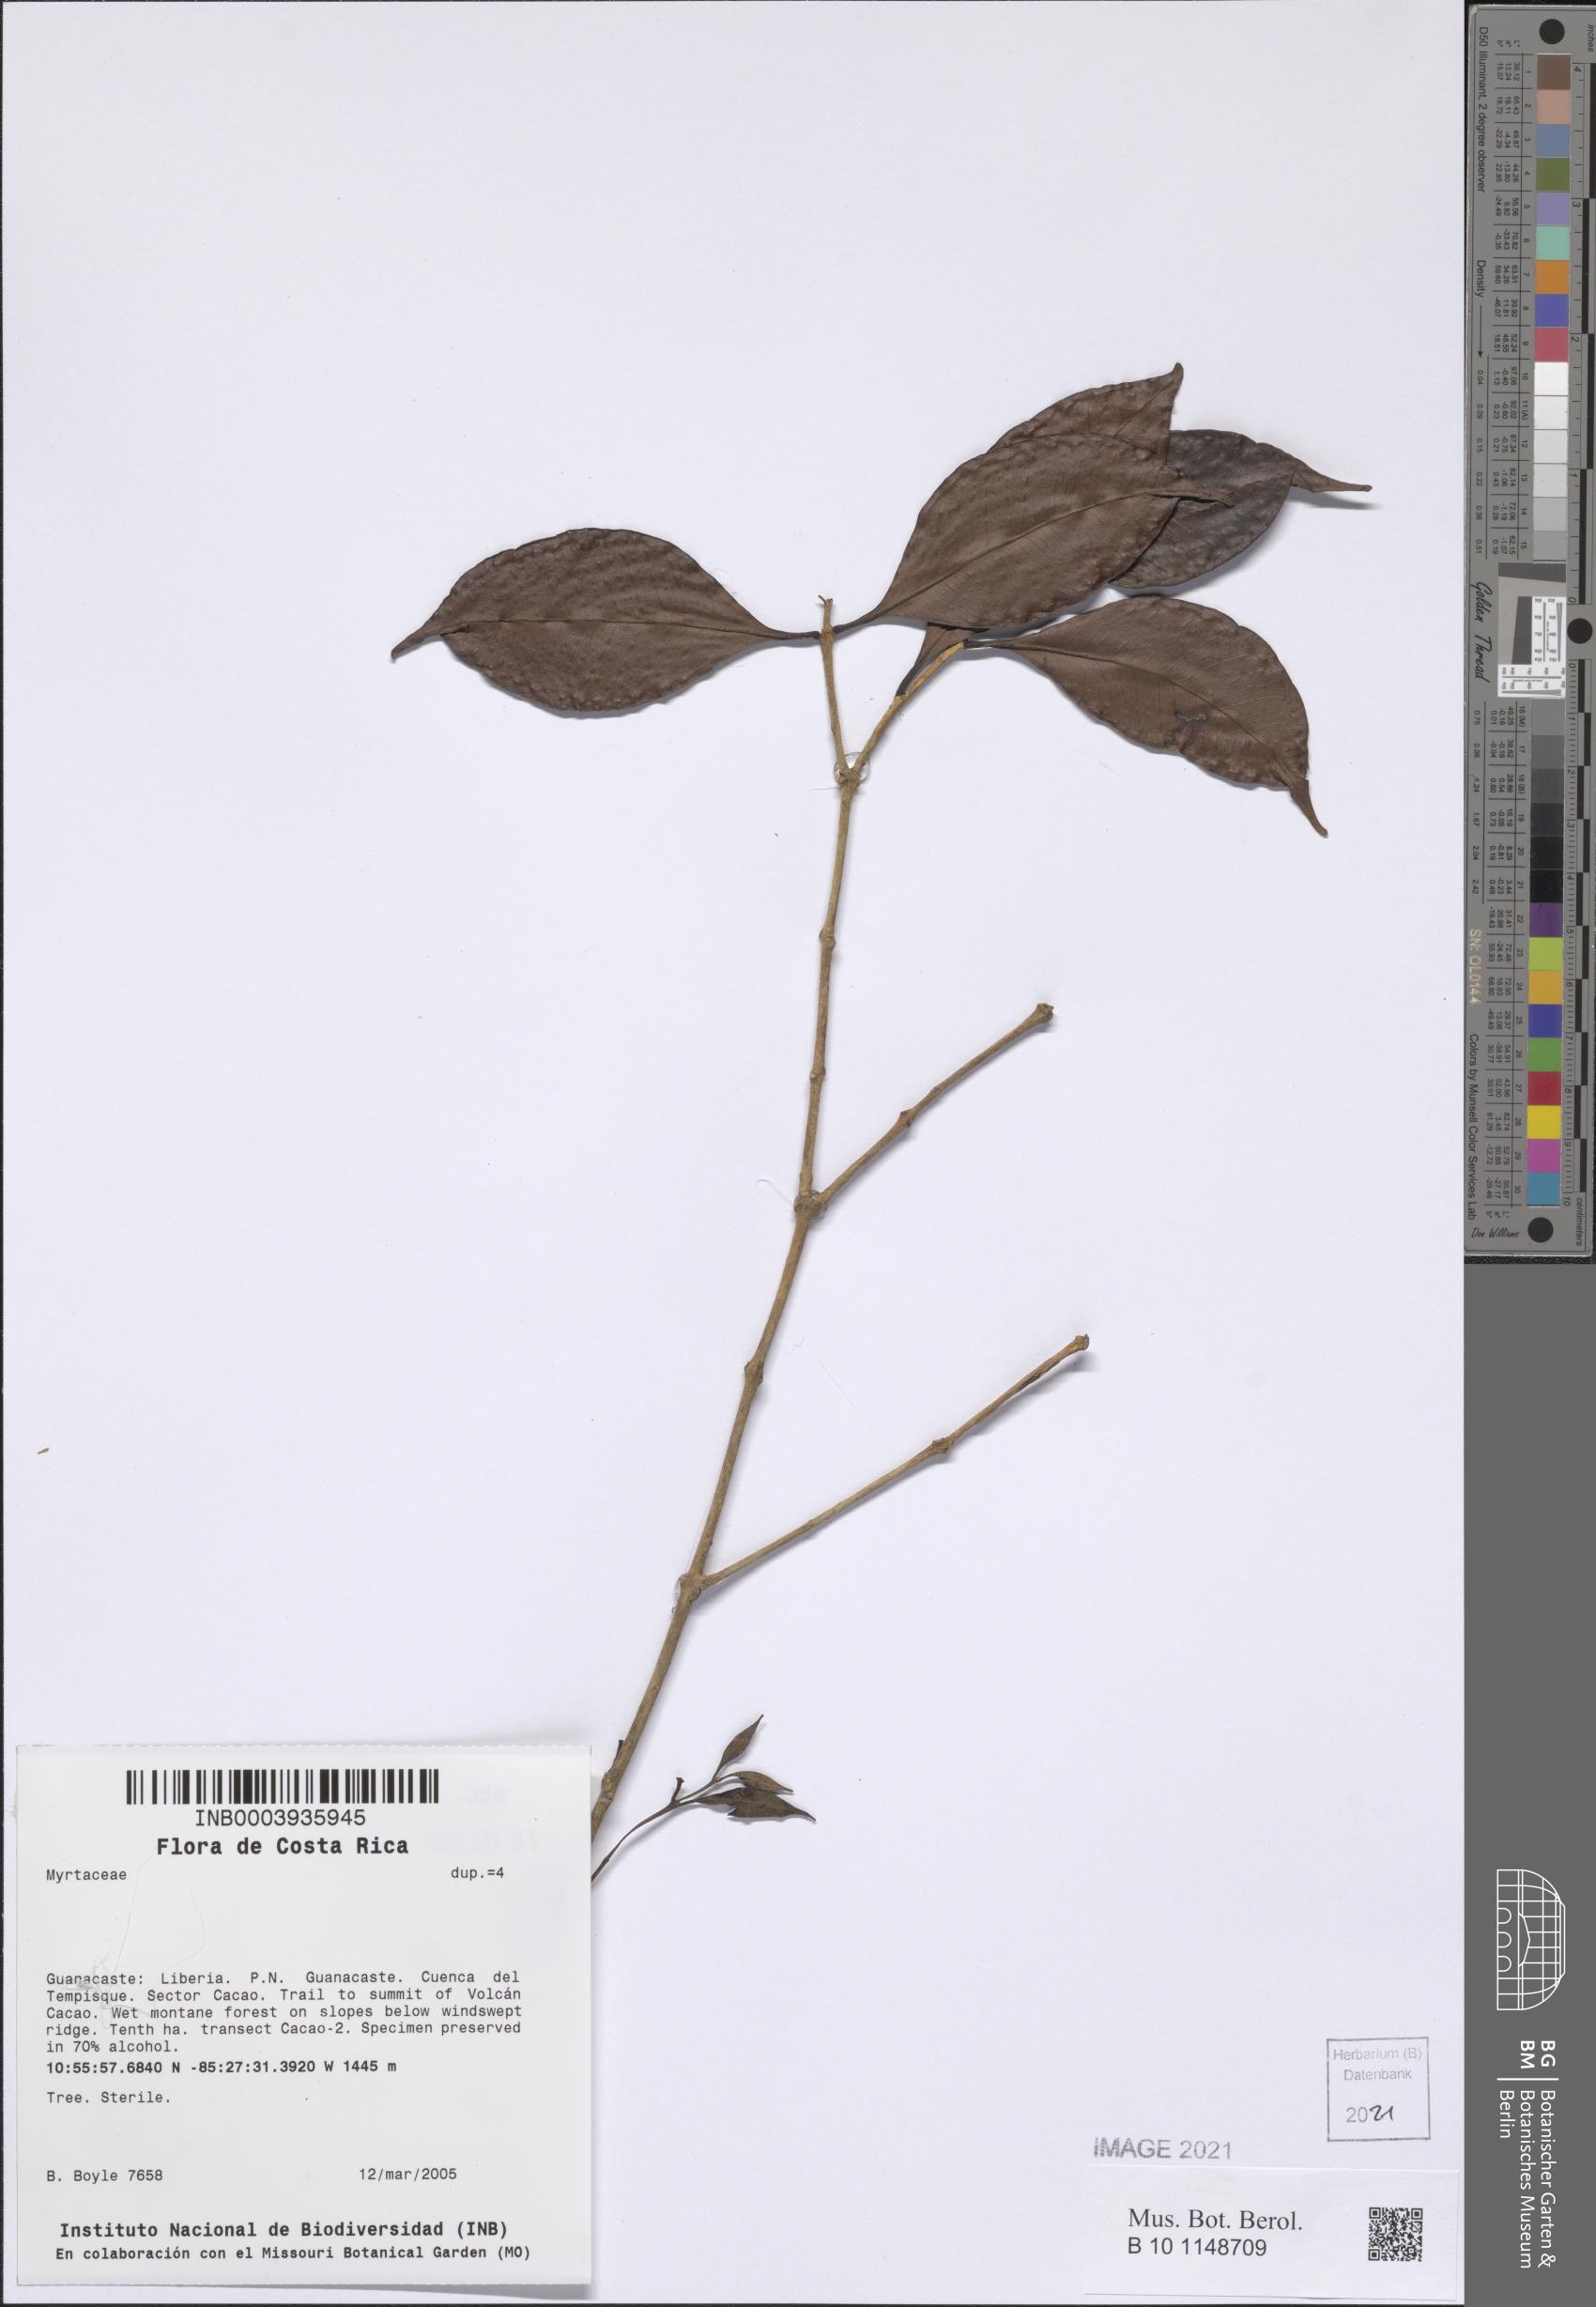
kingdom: Plantae
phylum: Tracheophyta
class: Magnoliopsida
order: Myrtales
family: Myrtaceae
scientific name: Myrtaceae
